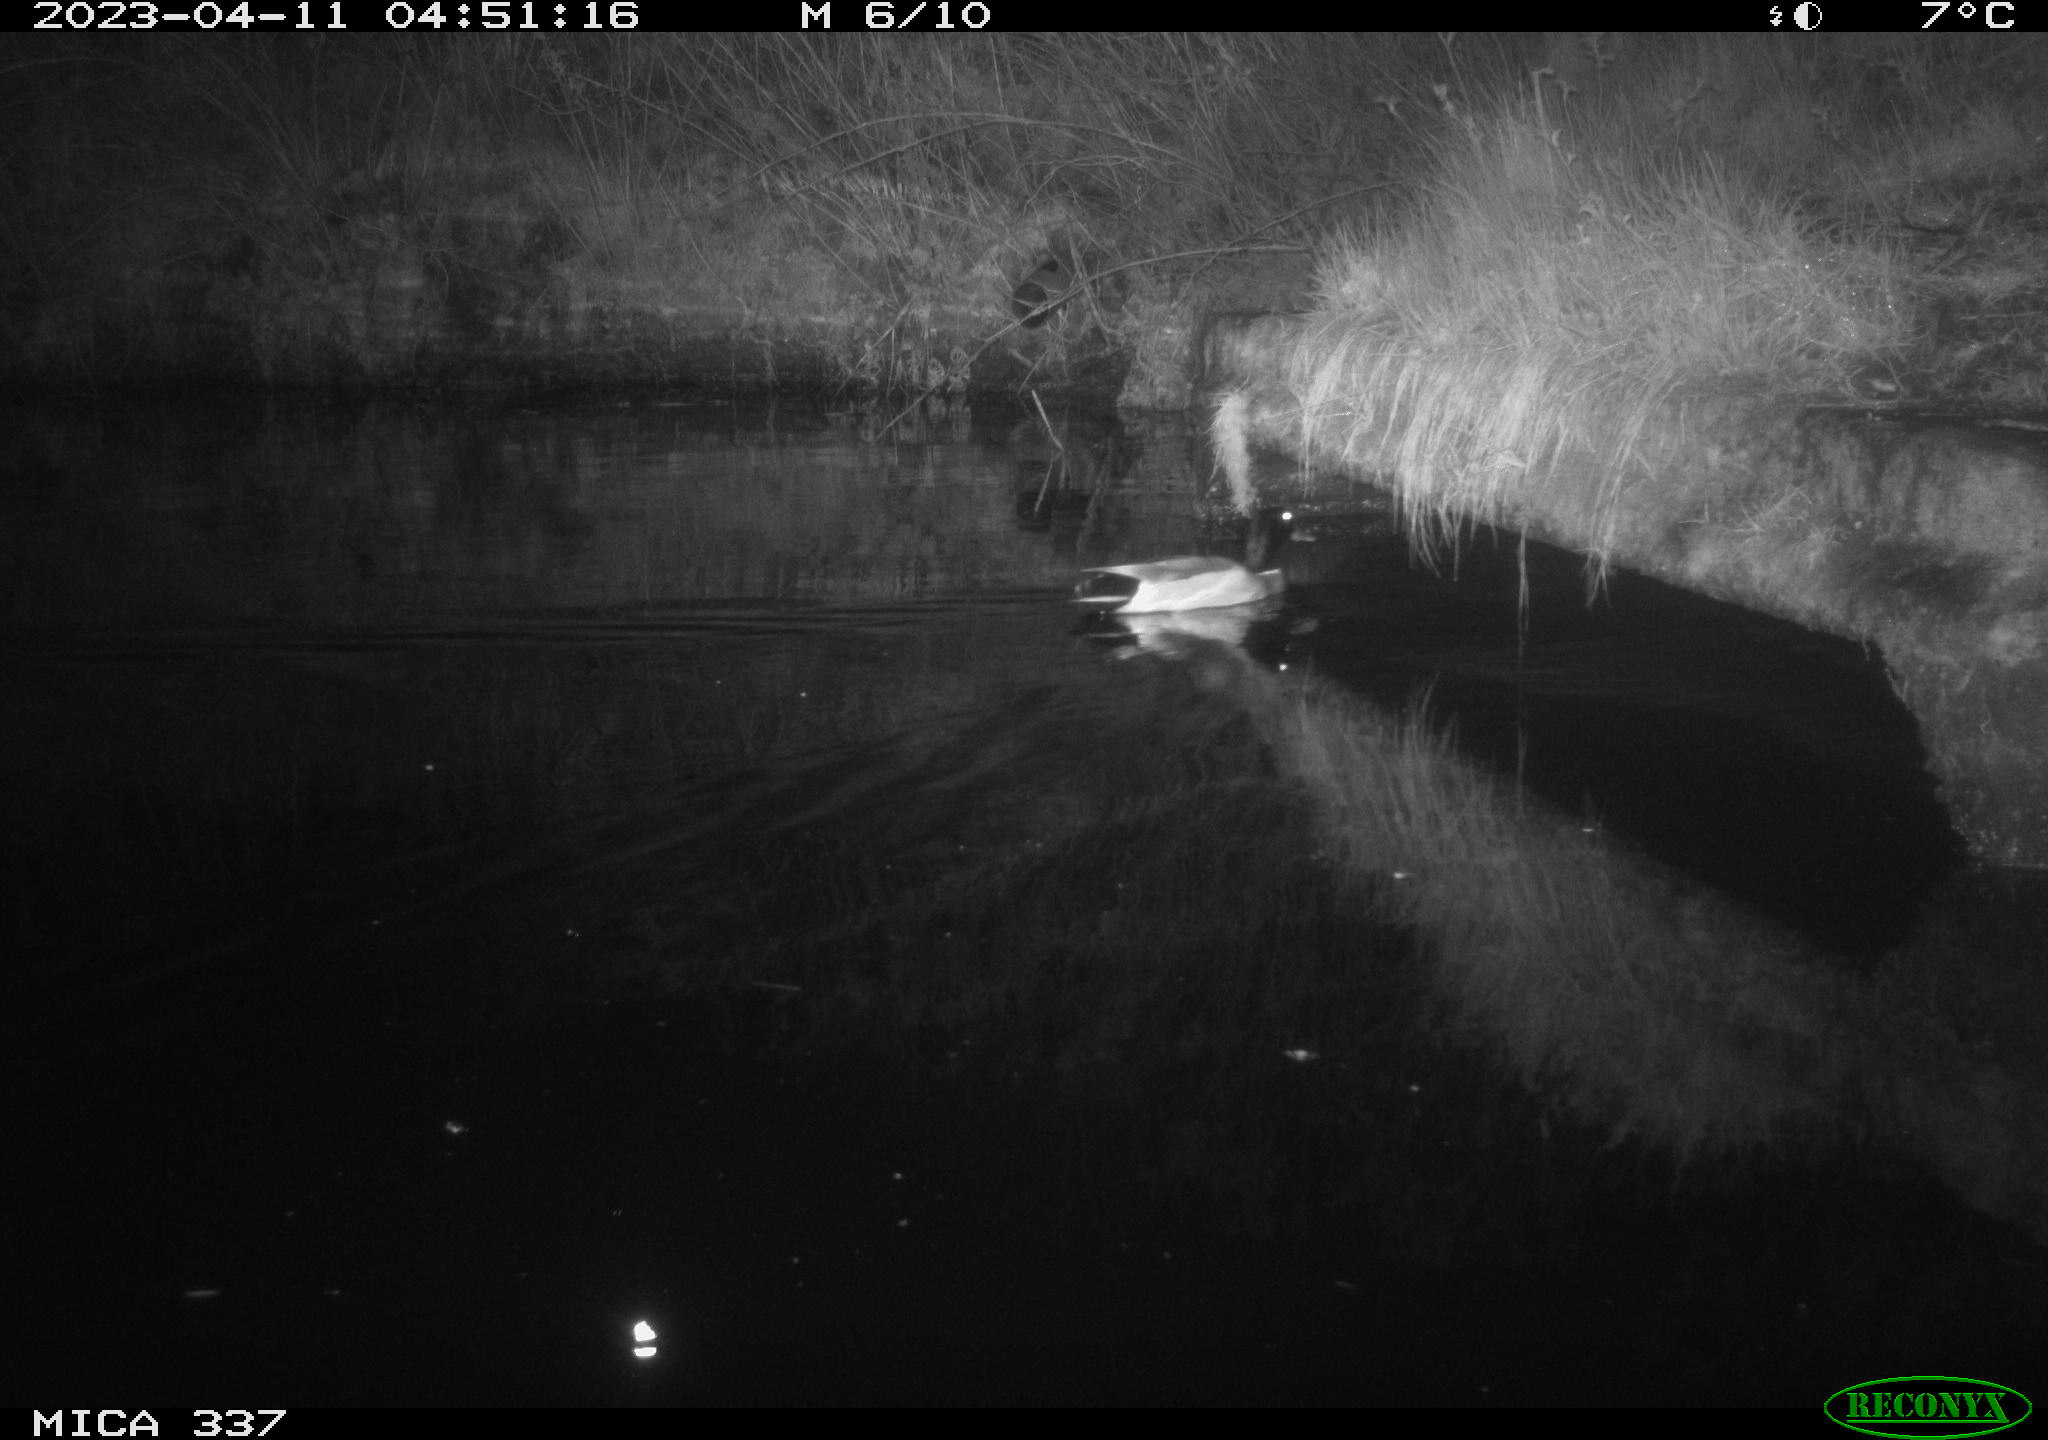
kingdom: Animalia
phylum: Chordata
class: Aves
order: Anseriformes
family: Anatidae
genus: Anas
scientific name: Anas
